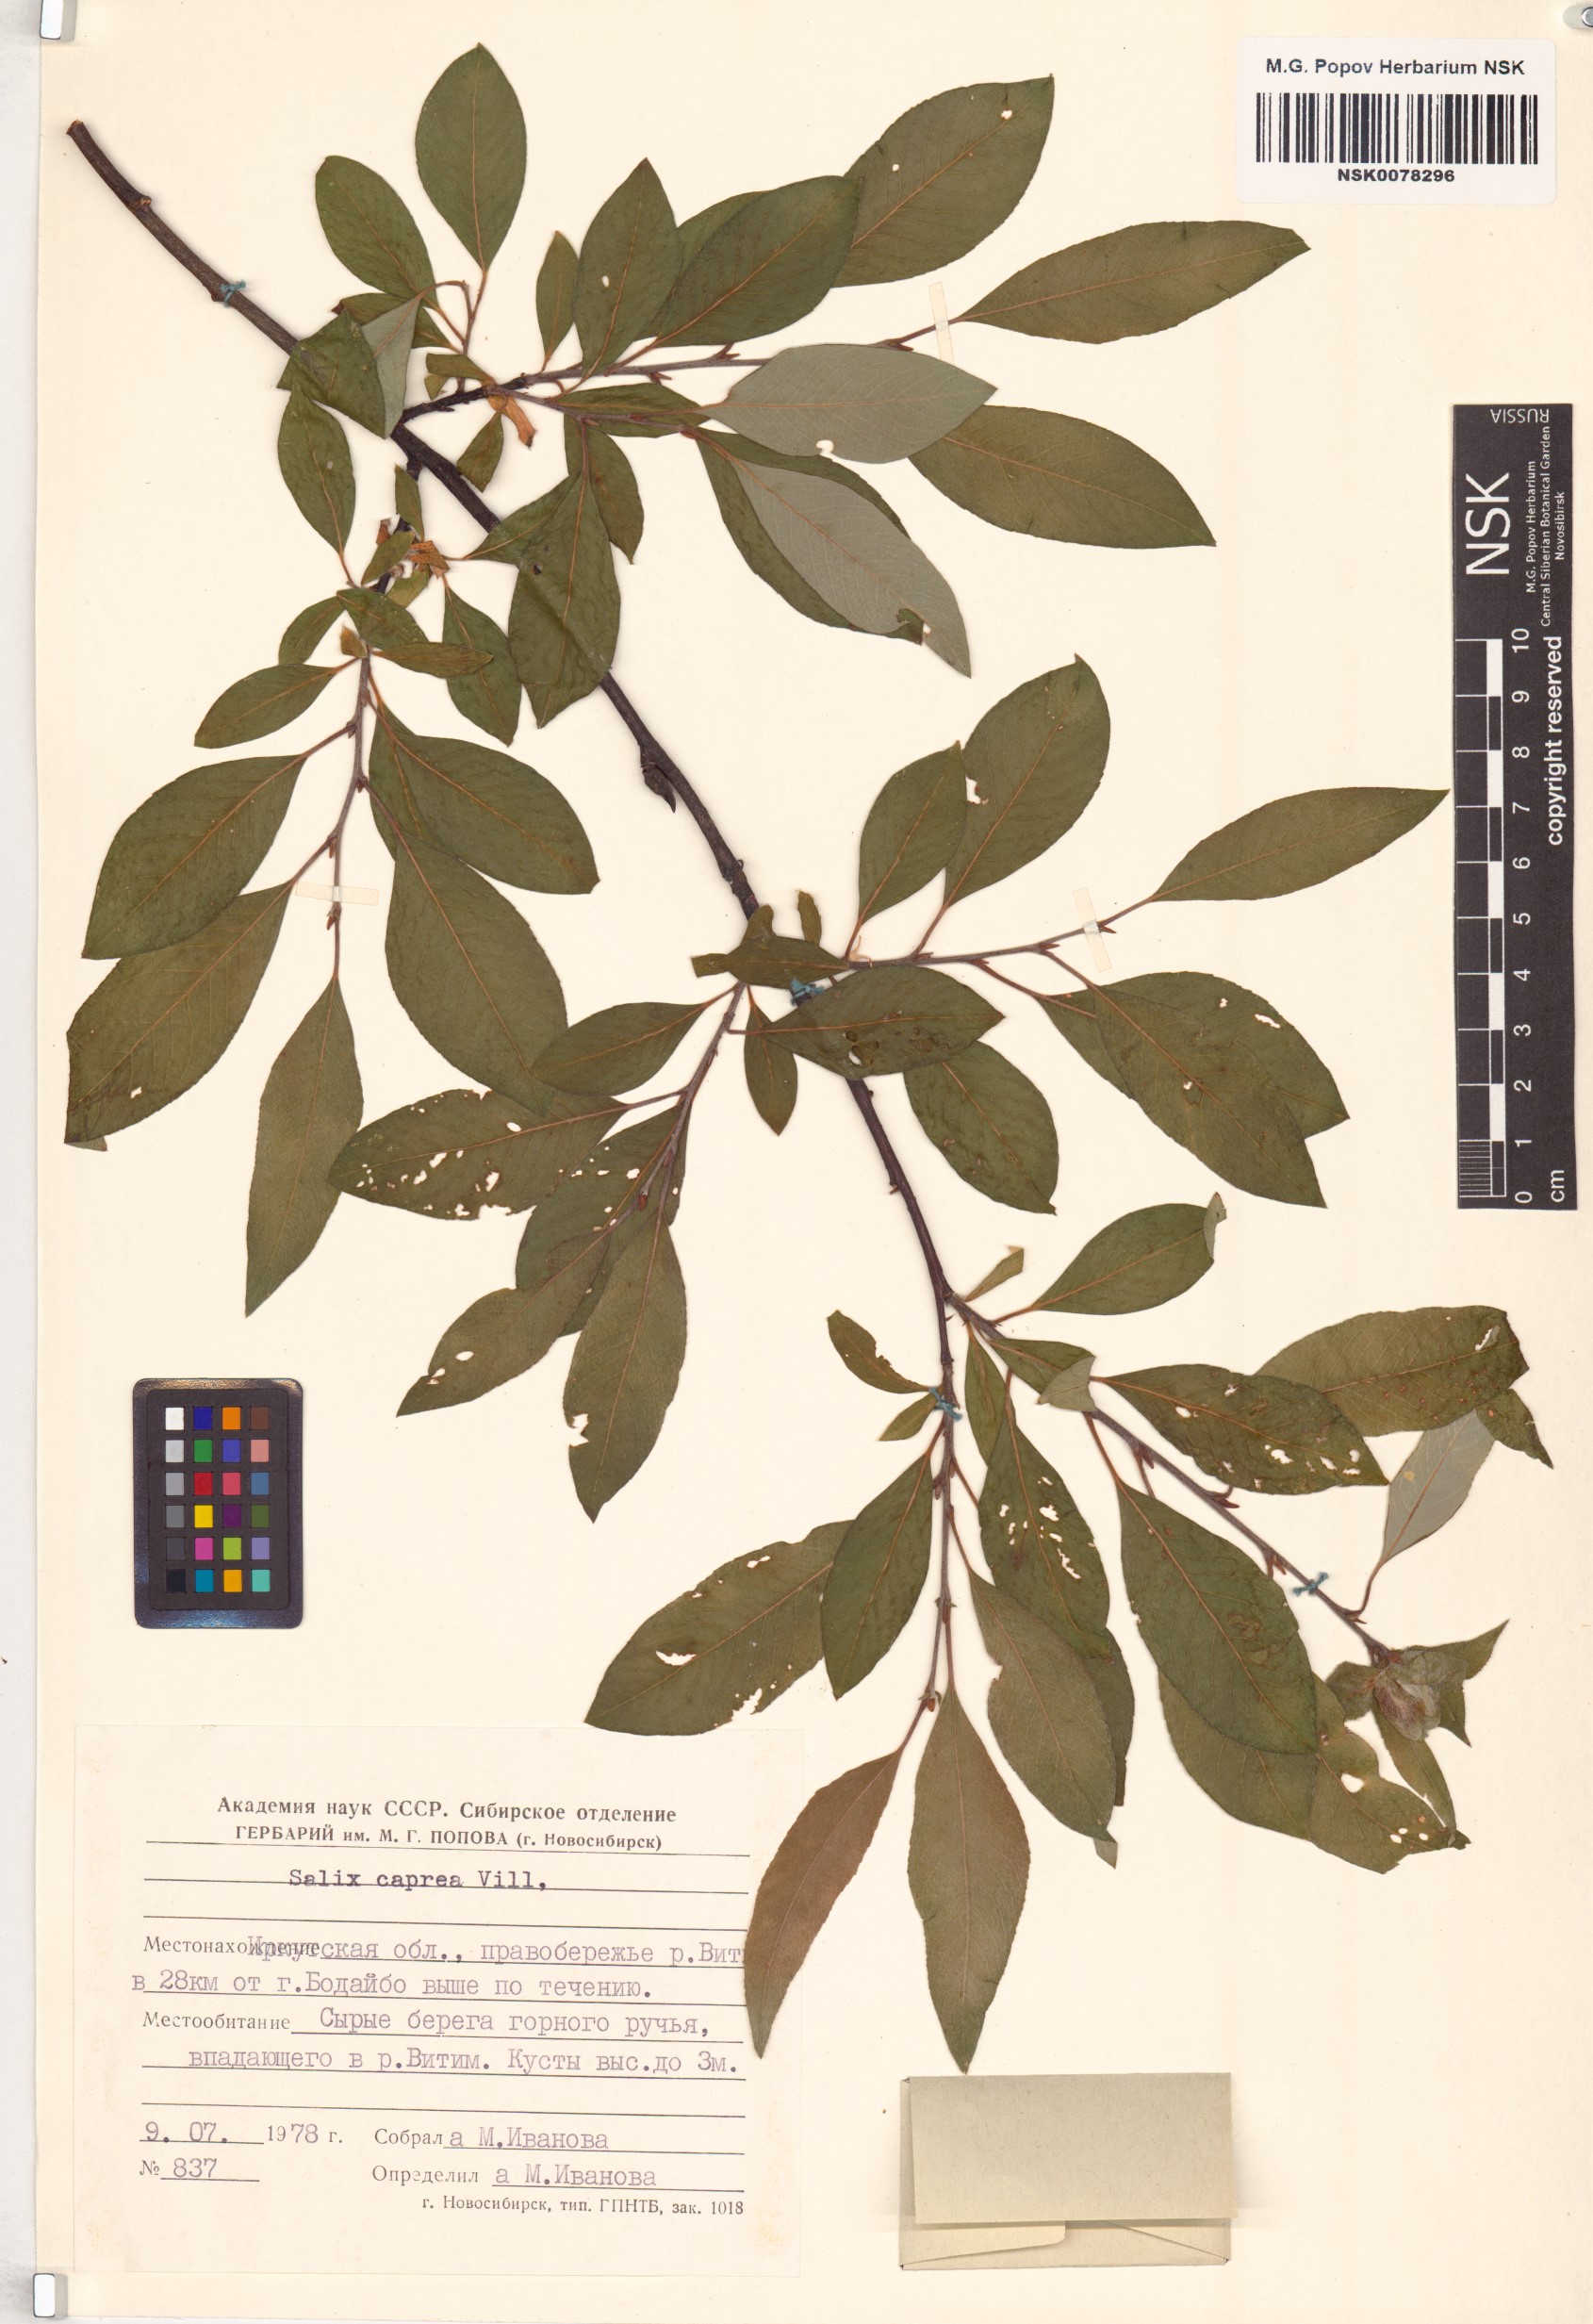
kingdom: Plantae
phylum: Tracheophyta
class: Magnoliopsida
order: Malpighiales
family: Salicaceae
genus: Salix
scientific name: Salix caprea
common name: Goat willow
